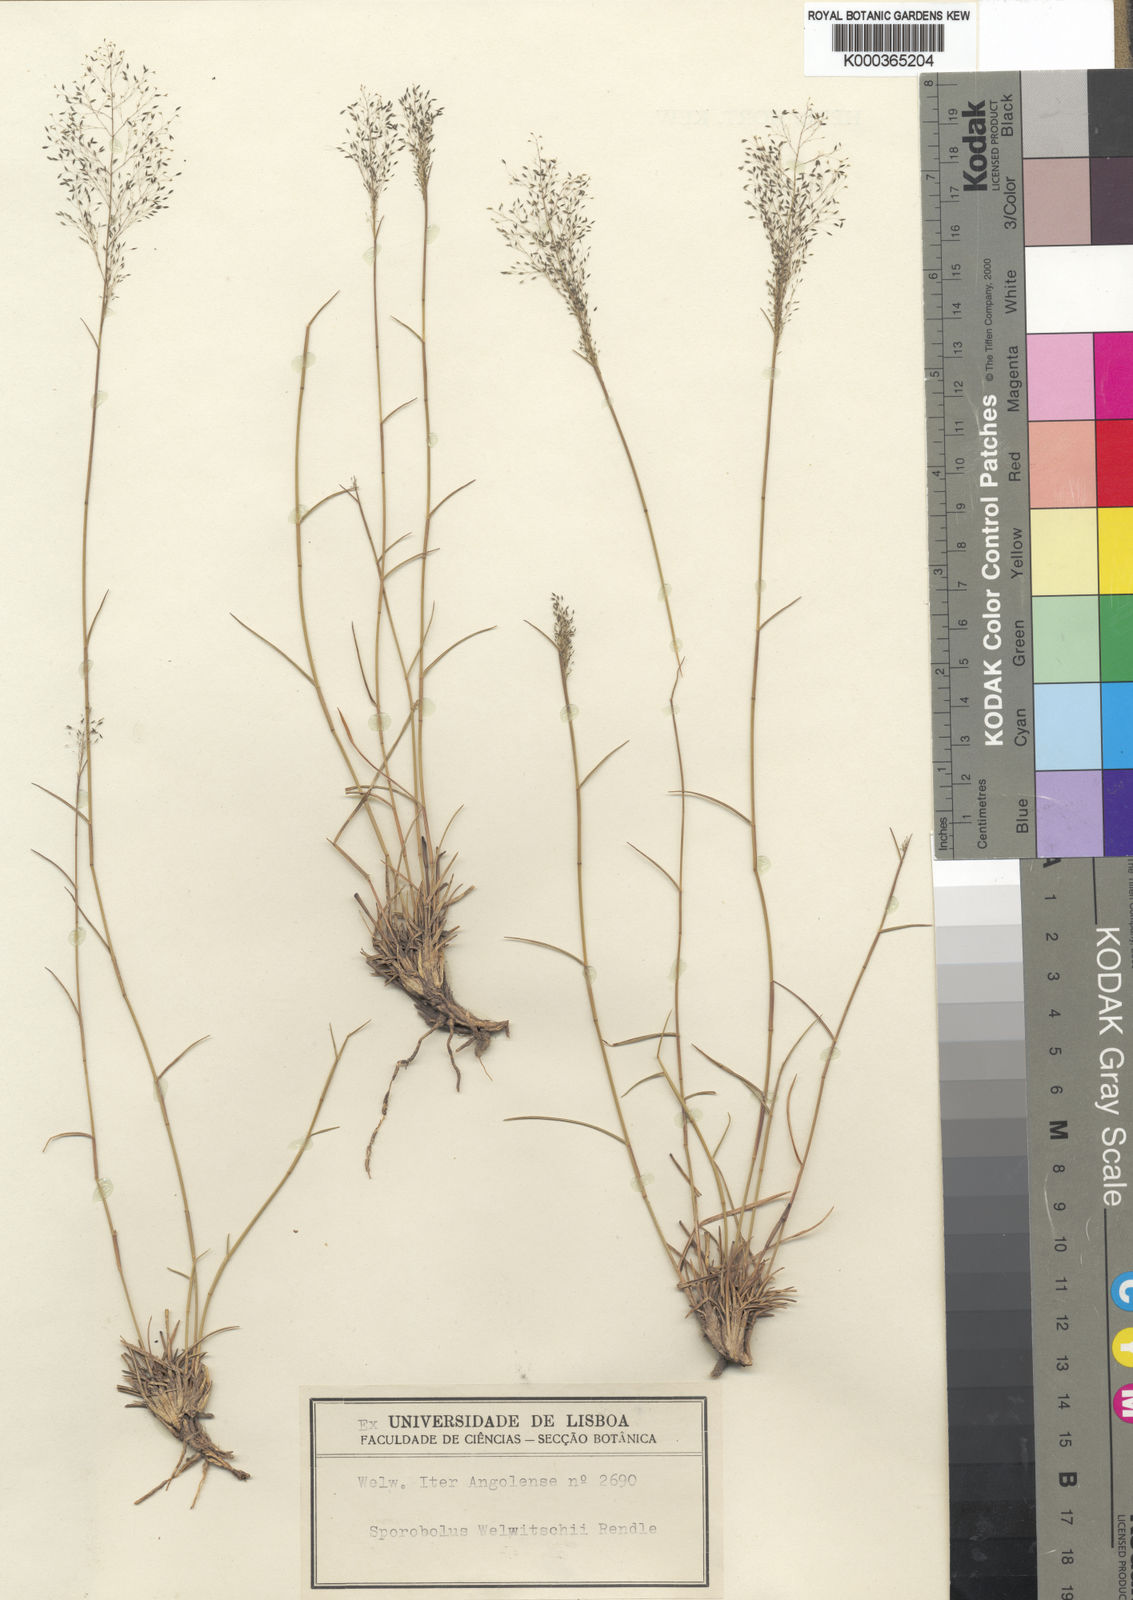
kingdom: Plantae
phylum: Tracheophyta
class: Liliopsida
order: Poales
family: Poaceae
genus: Sporobolus
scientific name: Sporobolus welwitschii
